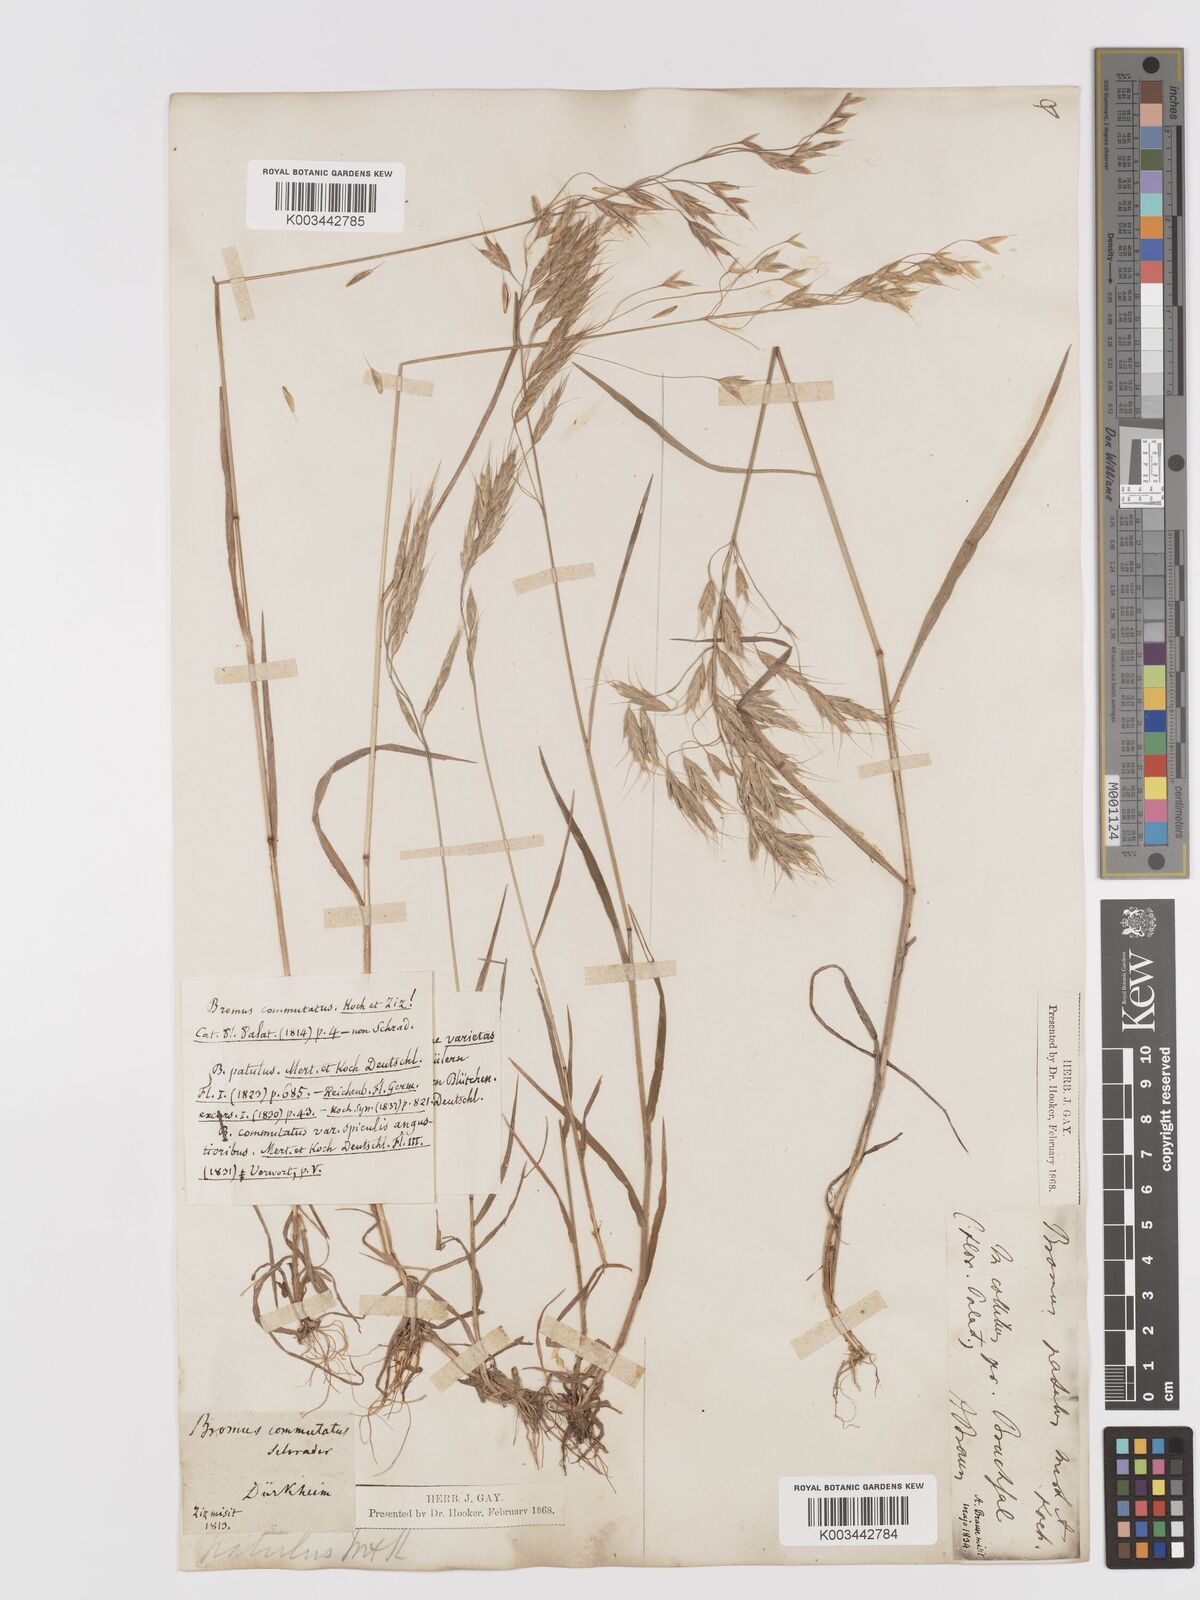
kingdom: Plantae
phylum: Tracheophyta
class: Liliopsida
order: Poales
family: Poaceae
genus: Bromus
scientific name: Bromus japonicus
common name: Japanese brome
